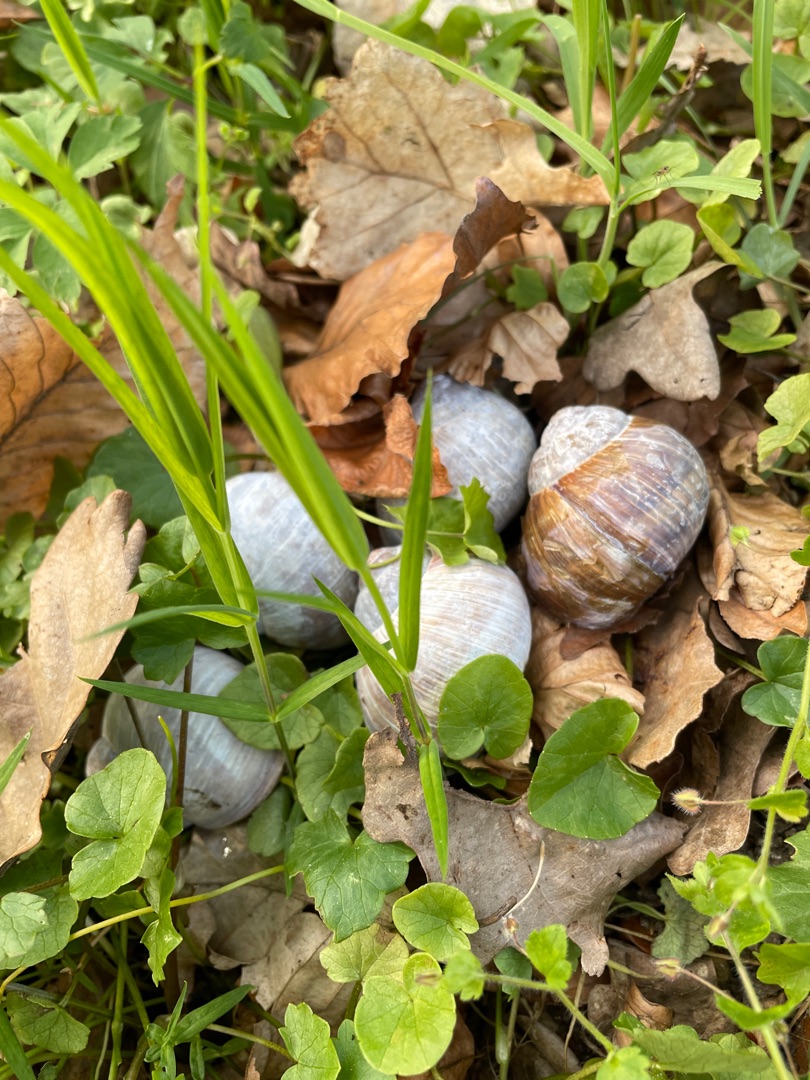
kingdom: Animalia
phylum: Mollusca
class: Gastropoda
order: Stylommatophora
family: Helicidae
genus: Helix
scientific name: Helix pomatia
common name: Vinbjergsnegl
